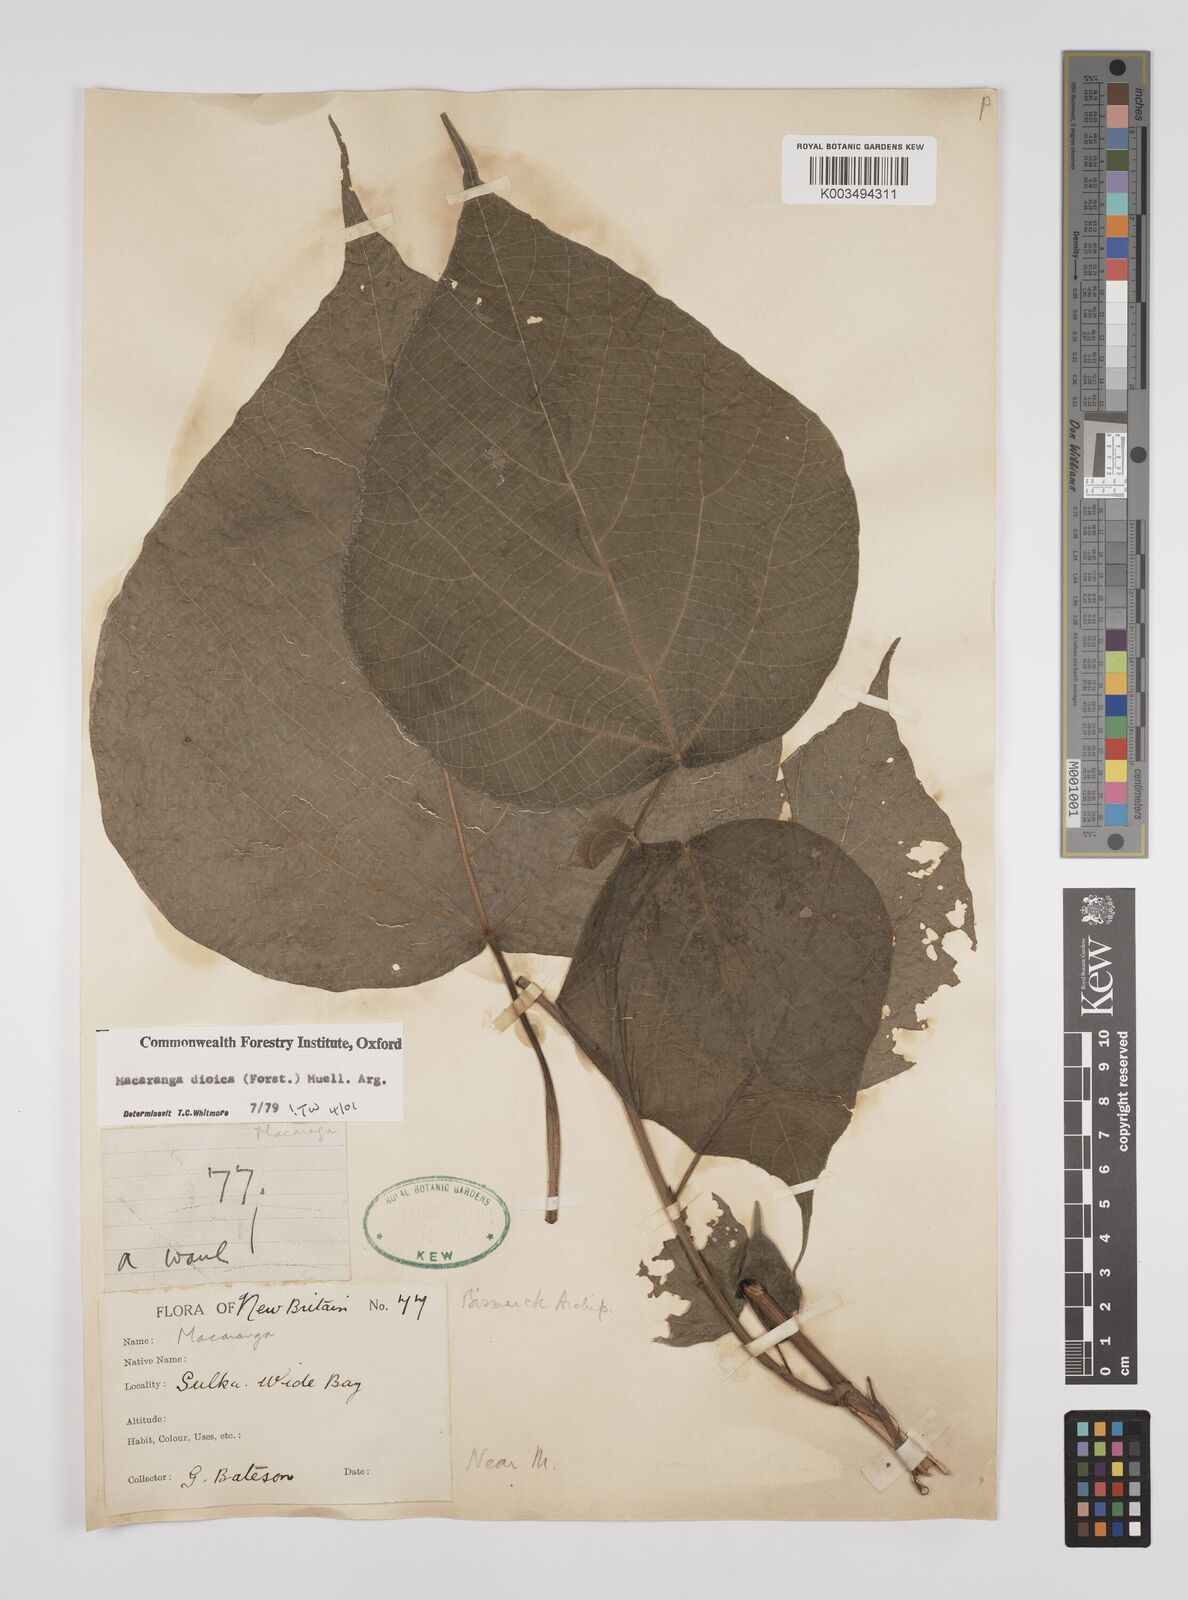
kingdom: Plantae
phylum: Tracheophyta
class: Magnoliopsida
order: Malpighiales
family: Euphorbiaceae
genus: Macaranga
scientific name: Macaranga dioica
